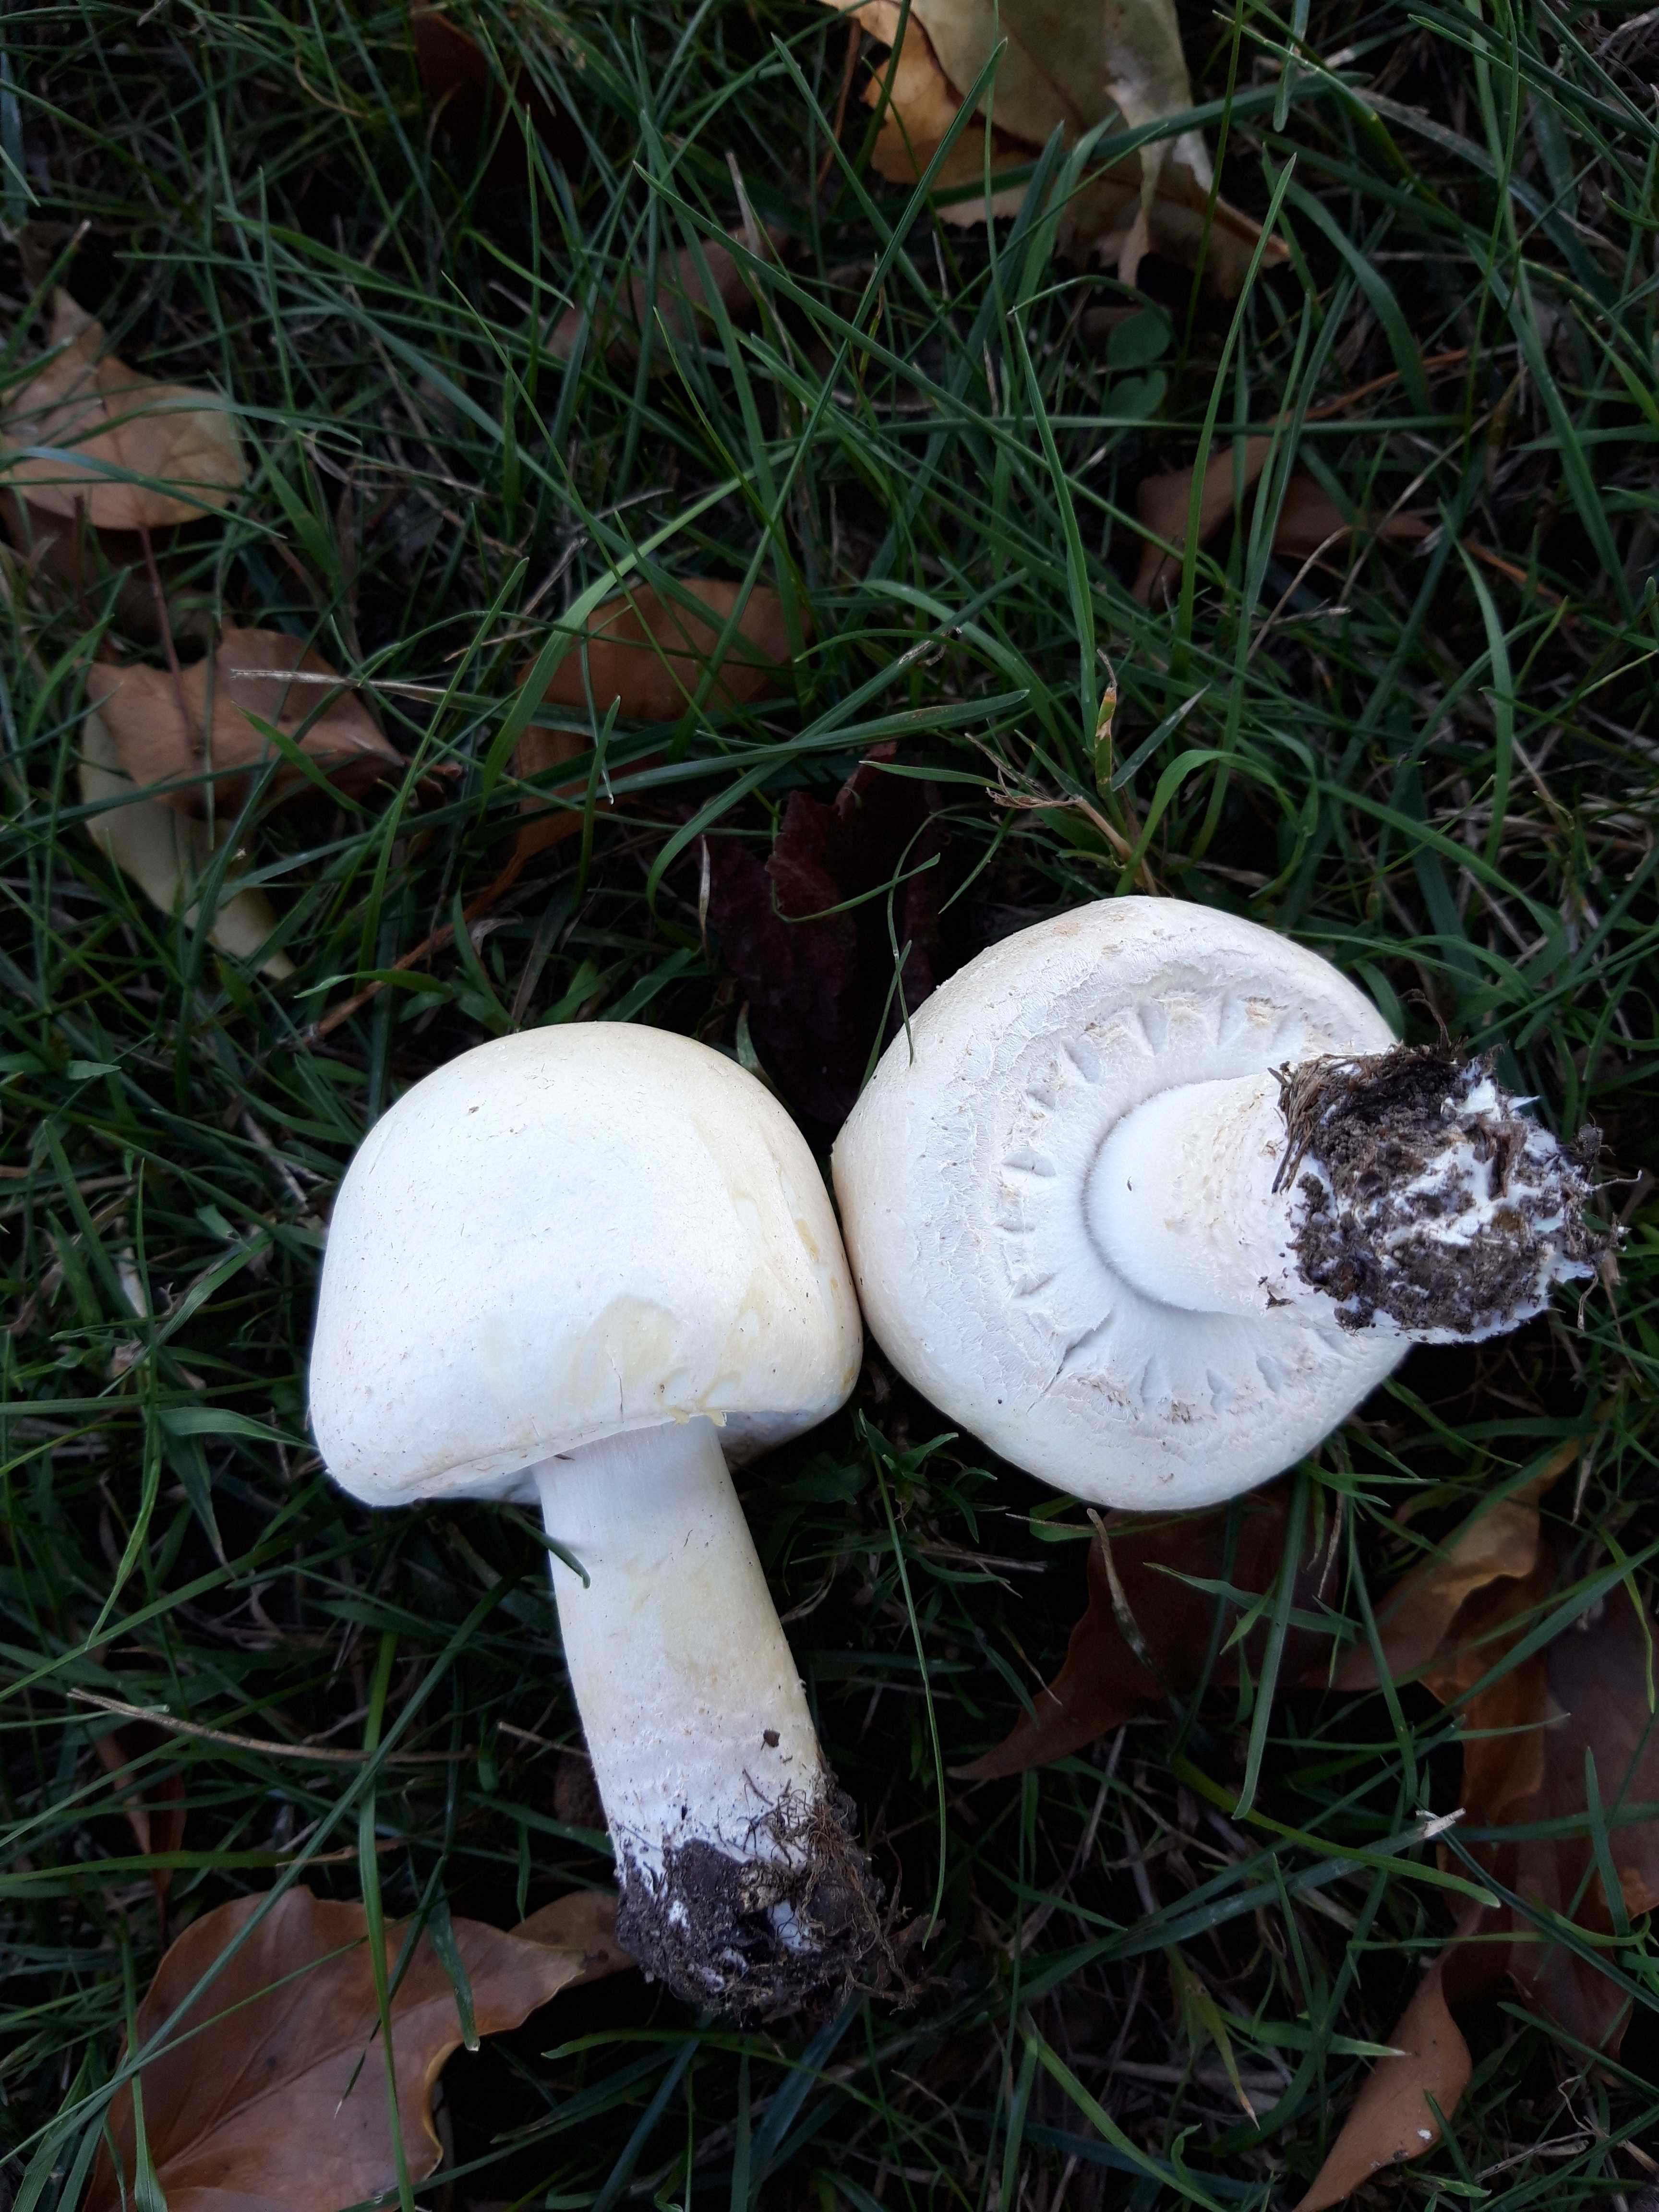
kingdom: Fungi
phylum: Basidiomycota
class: Agaricomycetes
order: Agaricales
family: Agaricaceae
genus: Agaricus
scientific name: Agaricus arvensis
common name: ager-champignon
